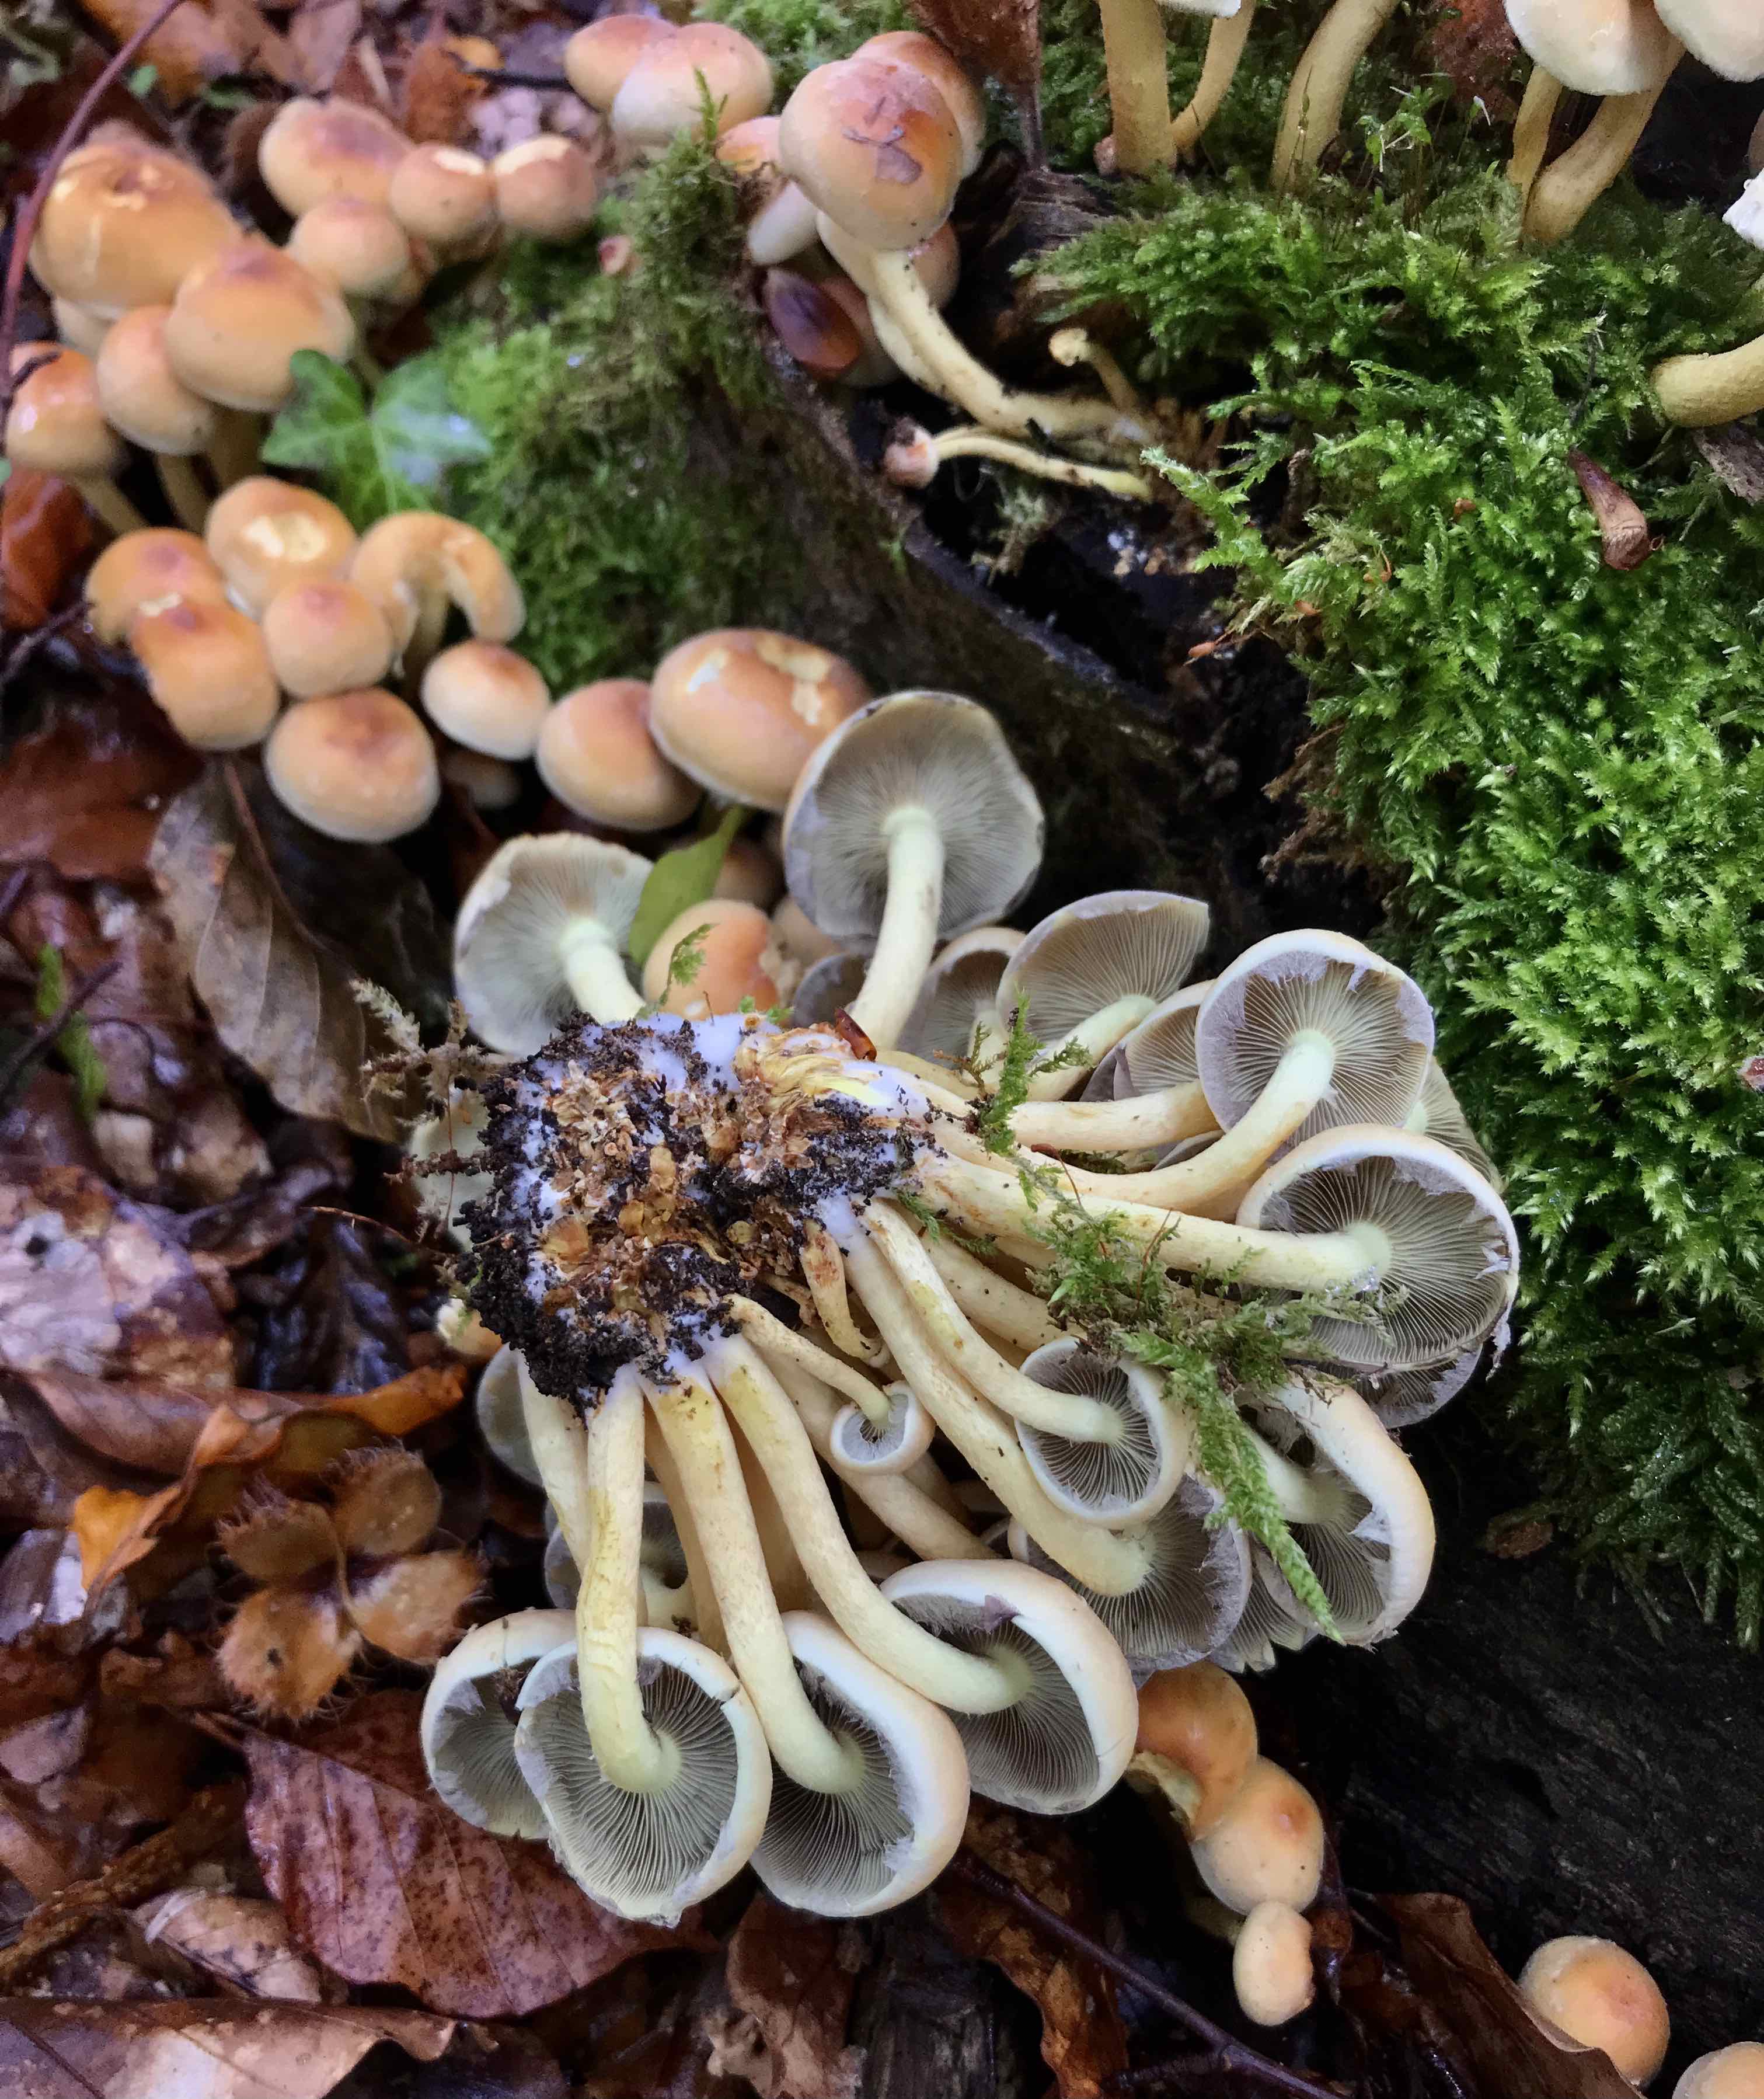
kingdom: Fungi
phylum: Basidiomycota
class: Agaricomycetes
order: Agaricales
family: Strophariaceae
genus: Hypholoma
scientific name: Hypholoma fasciculare
